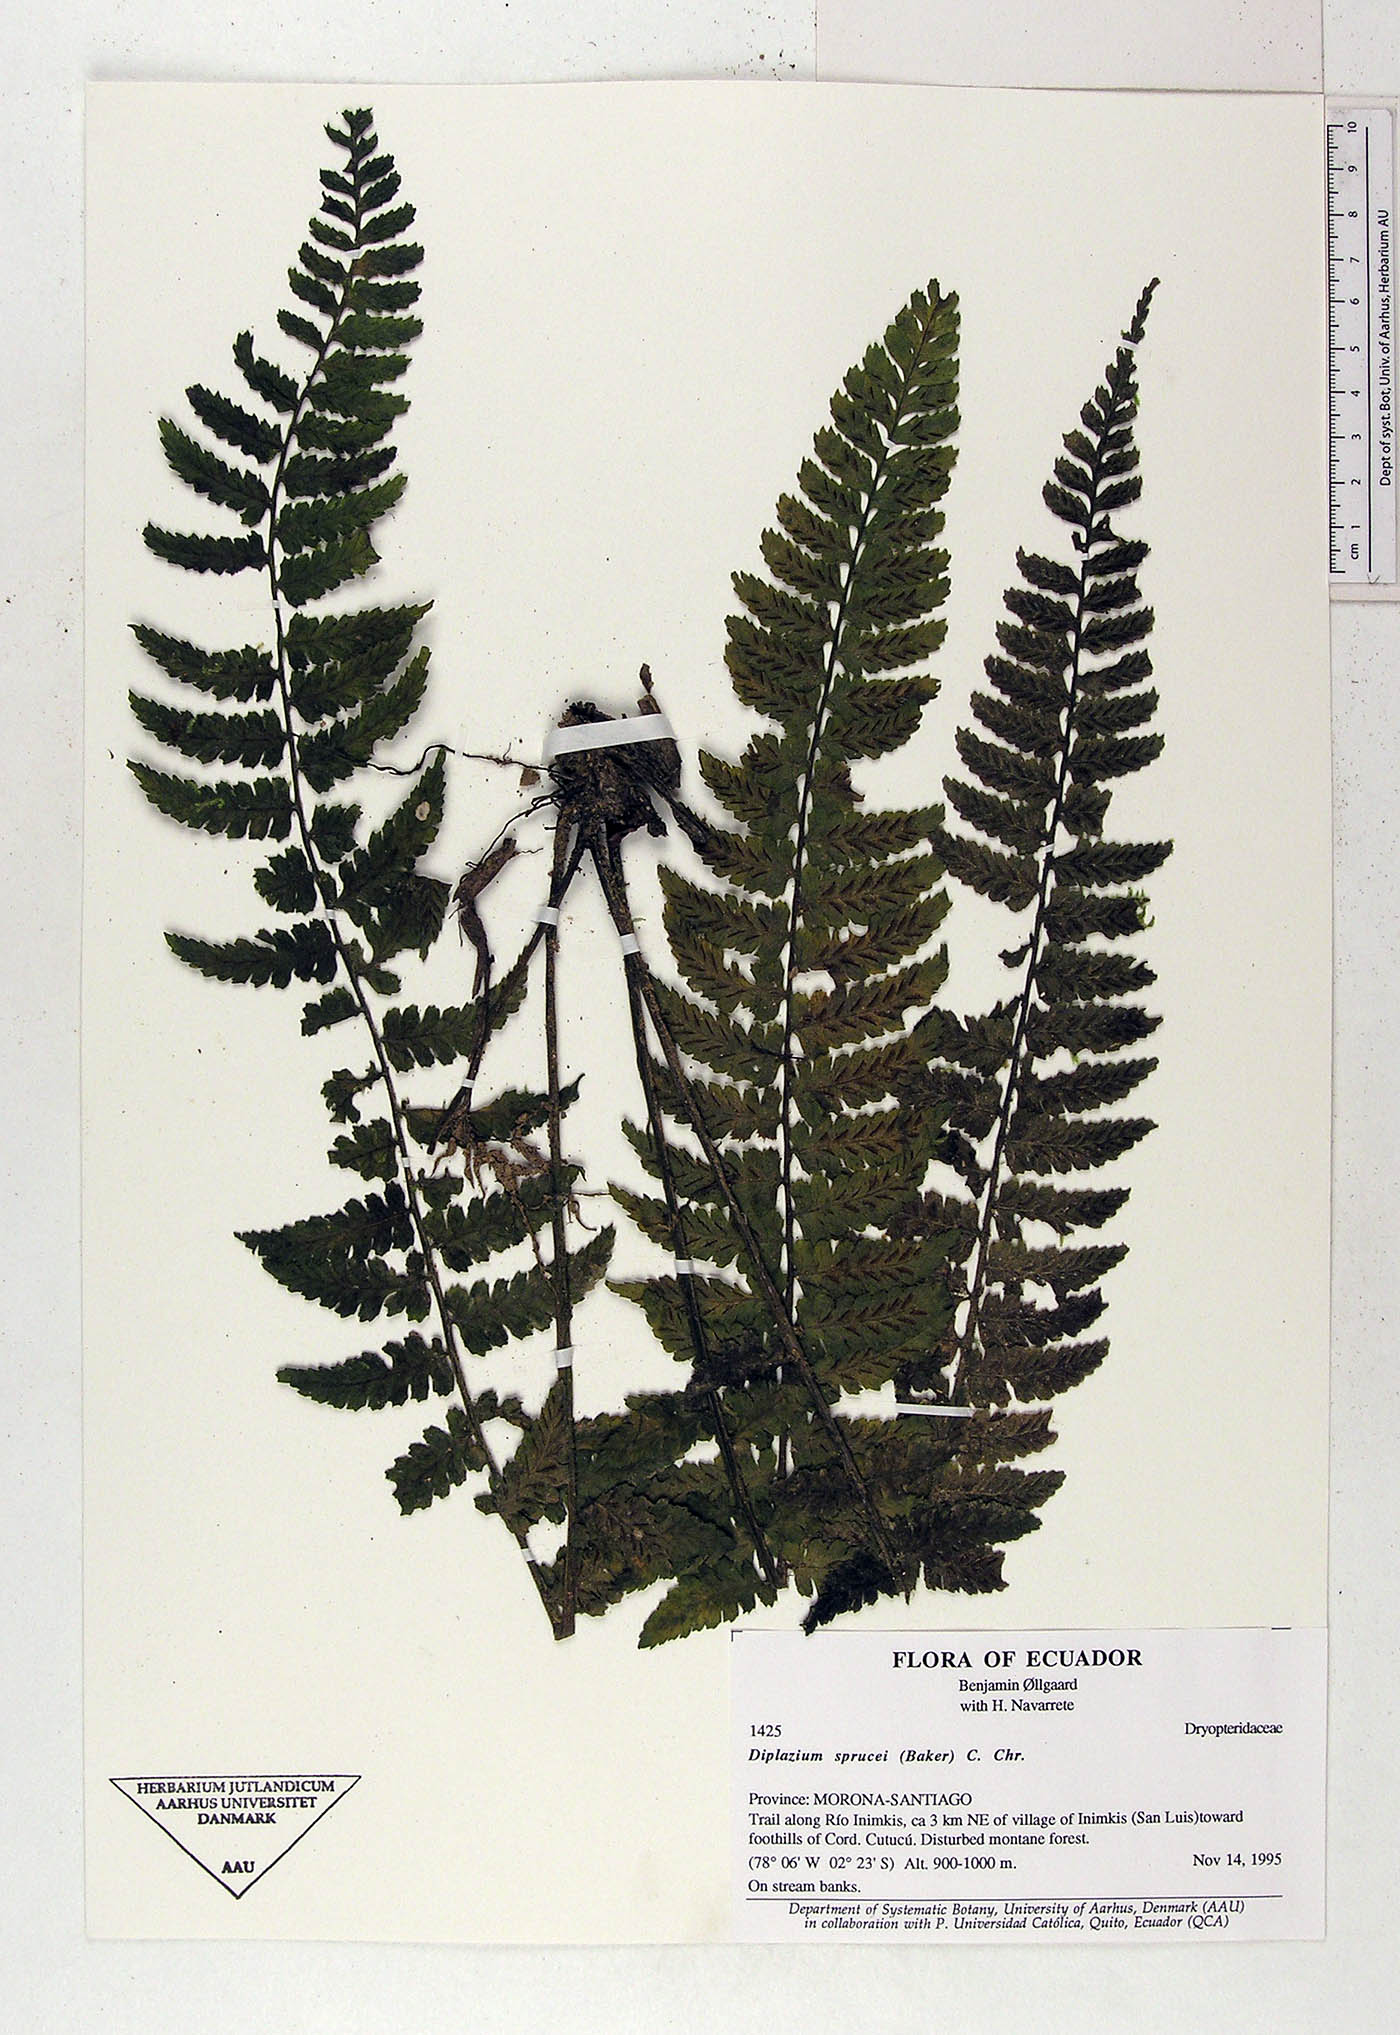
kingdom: Plantae
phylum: Tracheophyta
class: Polypodiopsida
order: Polypodiales
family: Athyriaceae
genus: Diplazium
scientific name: Diplazium sprucei
